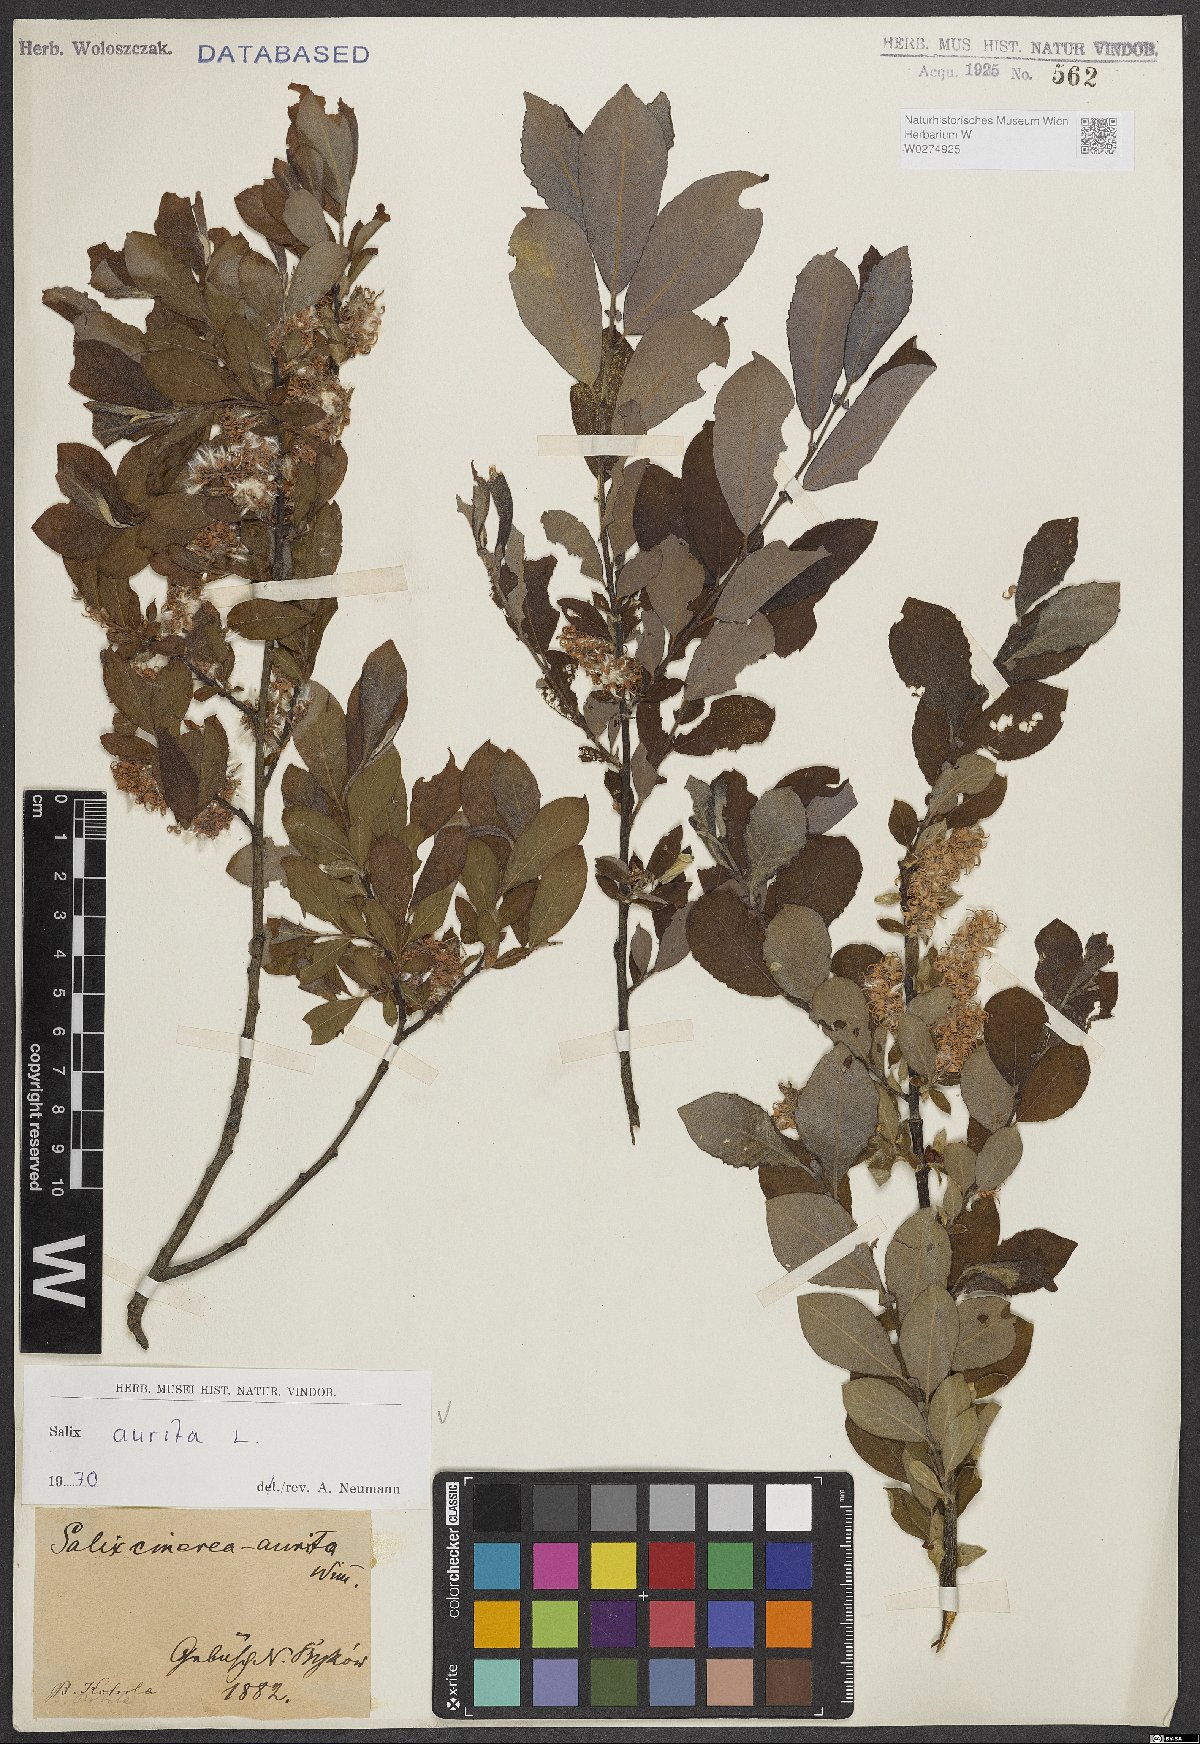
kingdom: Plantae
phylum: Tracheophyta
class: Magnoliopsida
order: Malpighiales
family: Salicaceae
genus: Salix
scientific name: Salix aurita
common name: Eared willow
